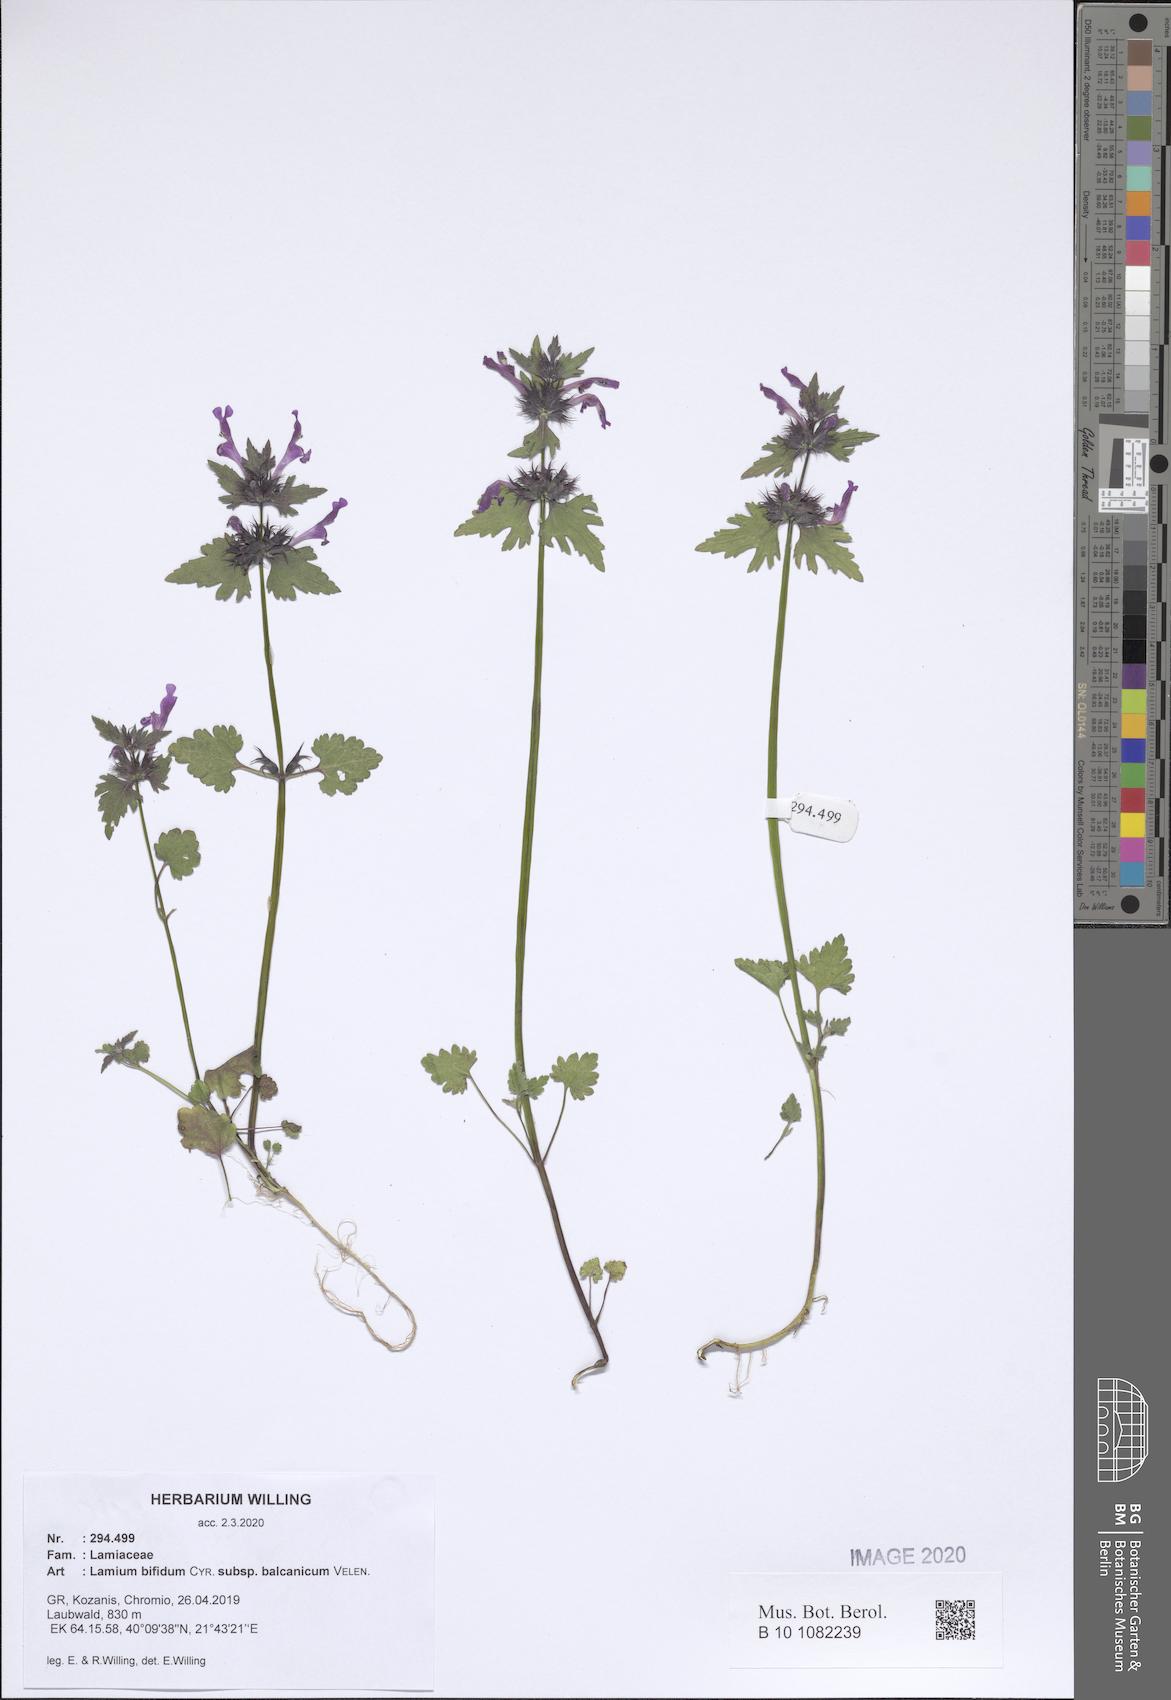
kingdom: Plantae
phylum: Tracheophyta
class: Magnoliopsida
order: Lamiales
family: Lamiaceae
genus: Lamium
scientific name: Lamium bifidum
